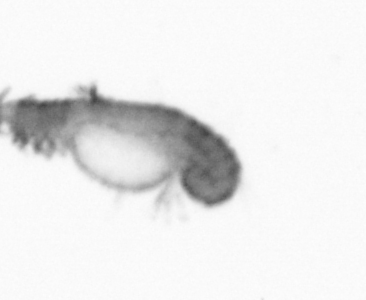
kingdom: Animalia
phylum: Annelida
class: Polychaeta
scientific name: Polychaeta
